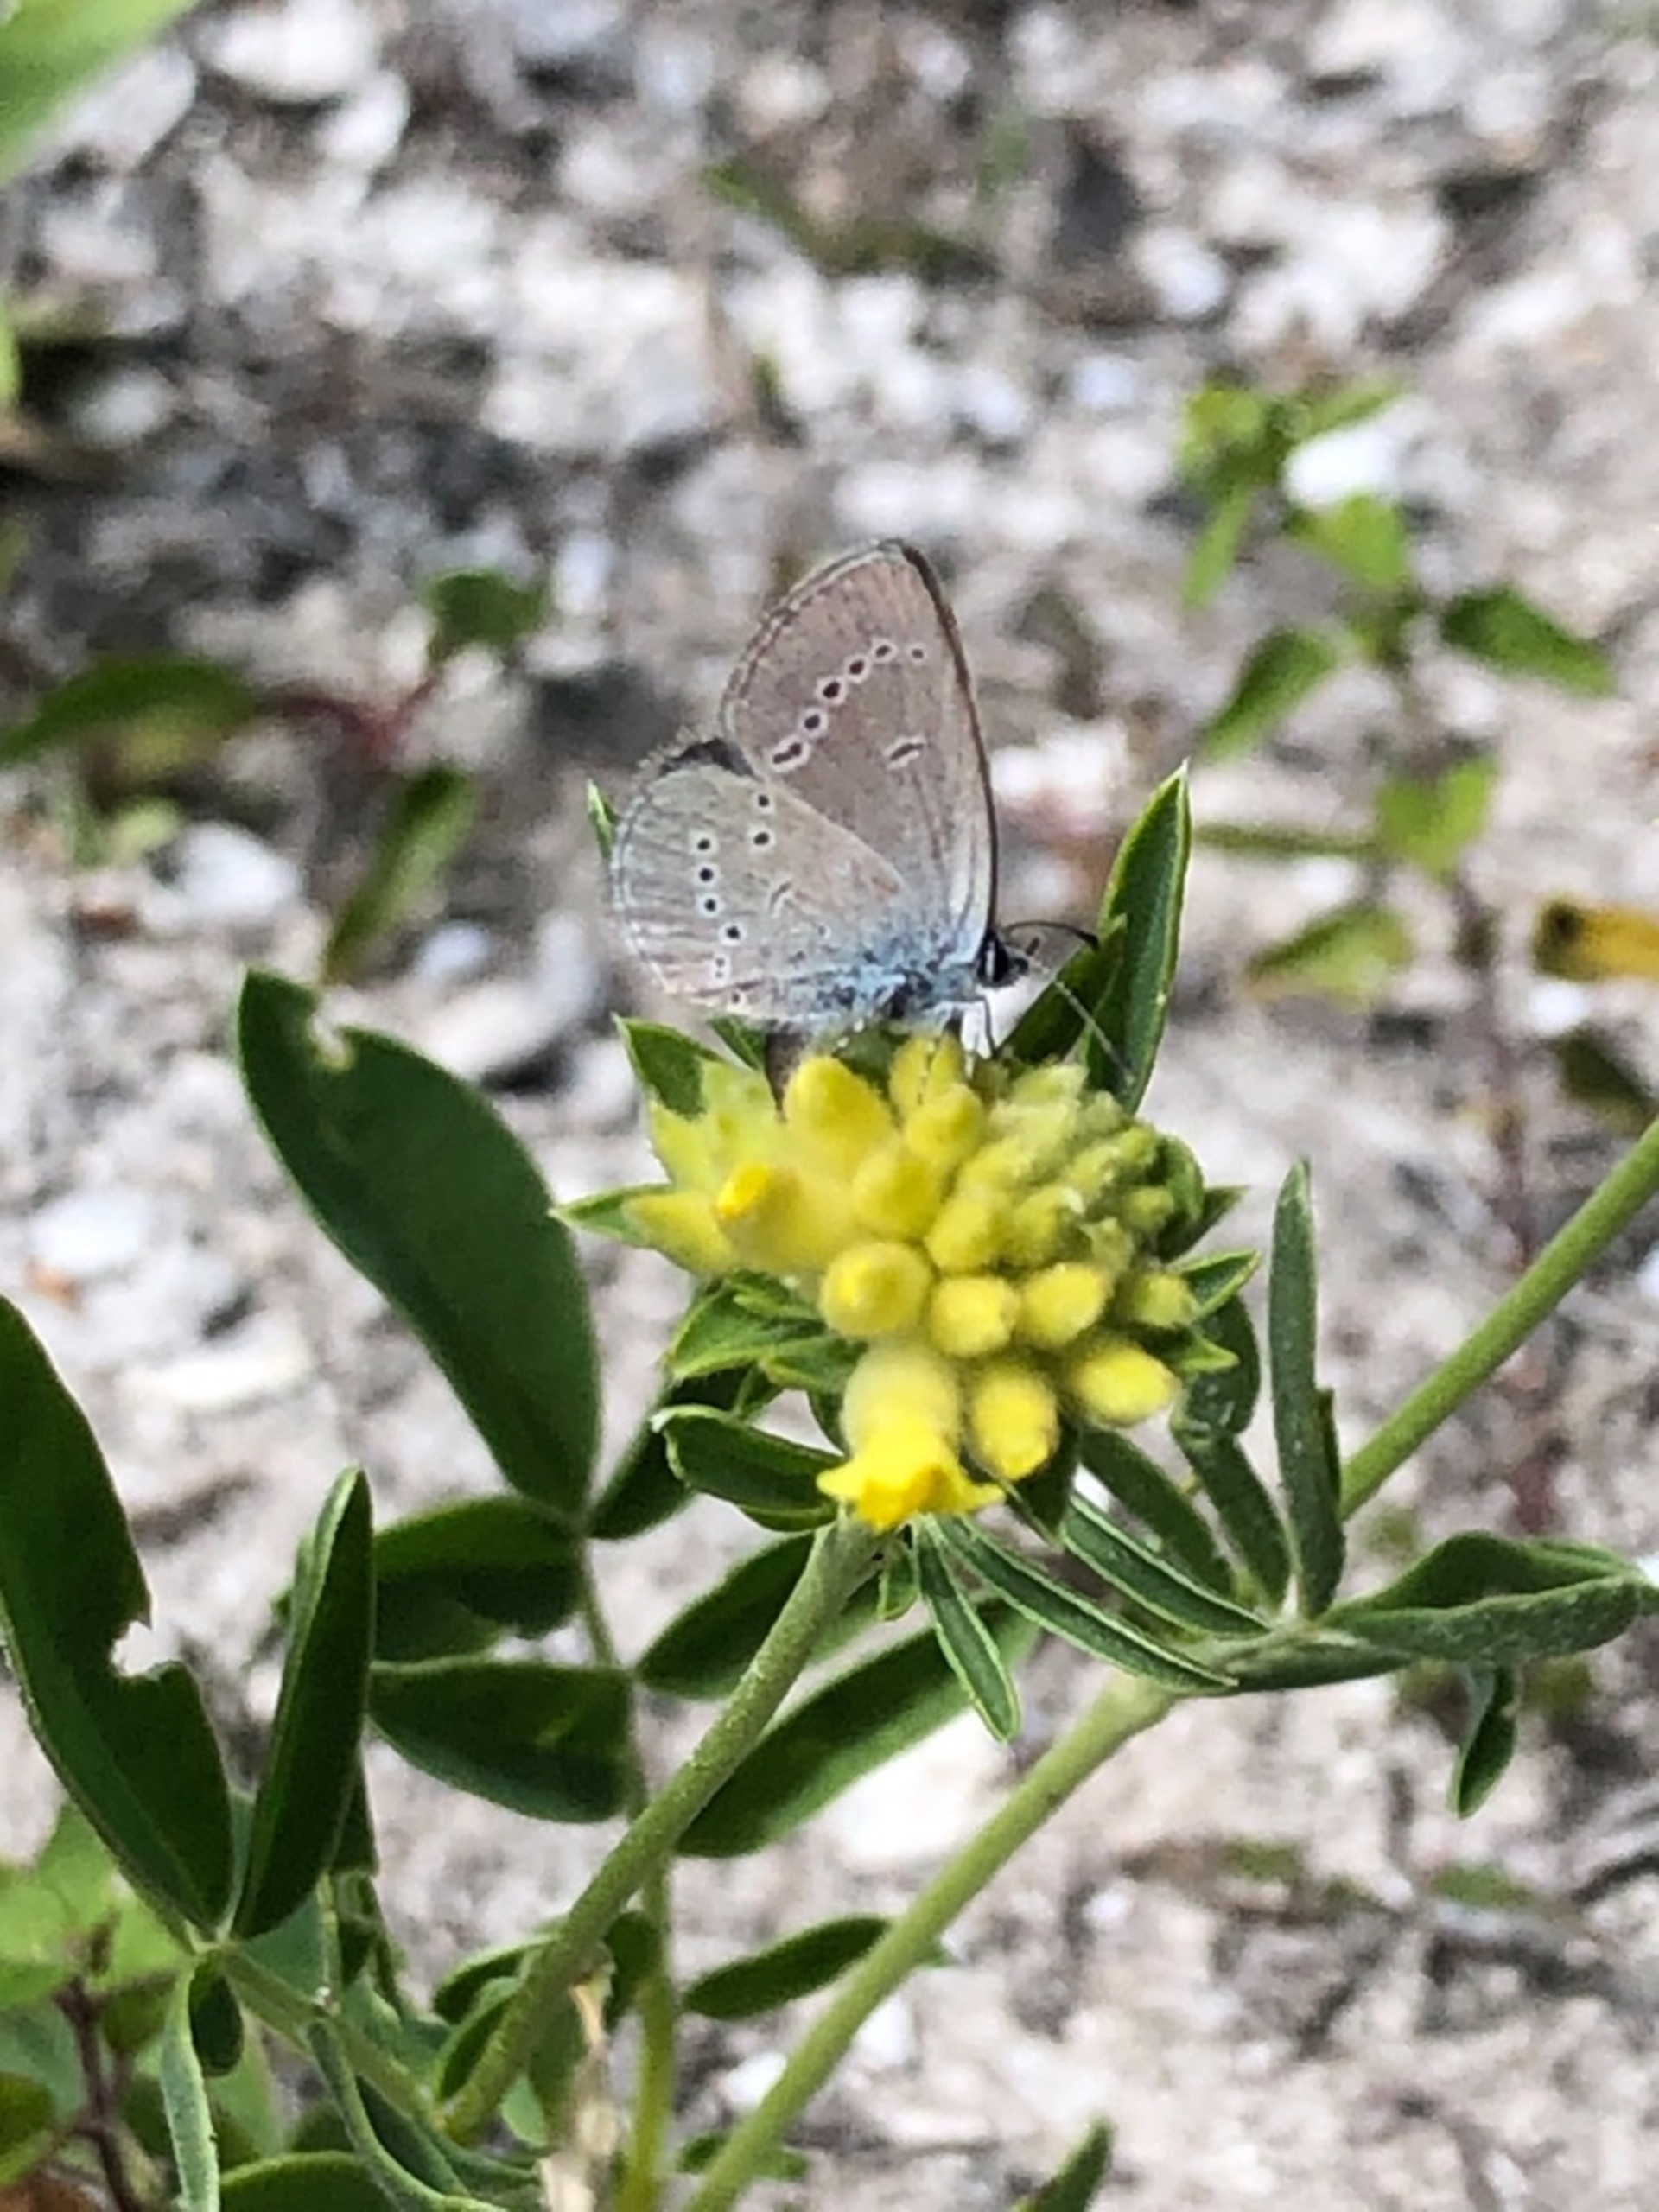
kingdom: Animalia
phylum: Arthropoda
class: Insecta
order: Lepidoptera
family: Lycaenidae
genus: Cupido
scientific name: Cupido minimus
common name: Dværgblåfugl
